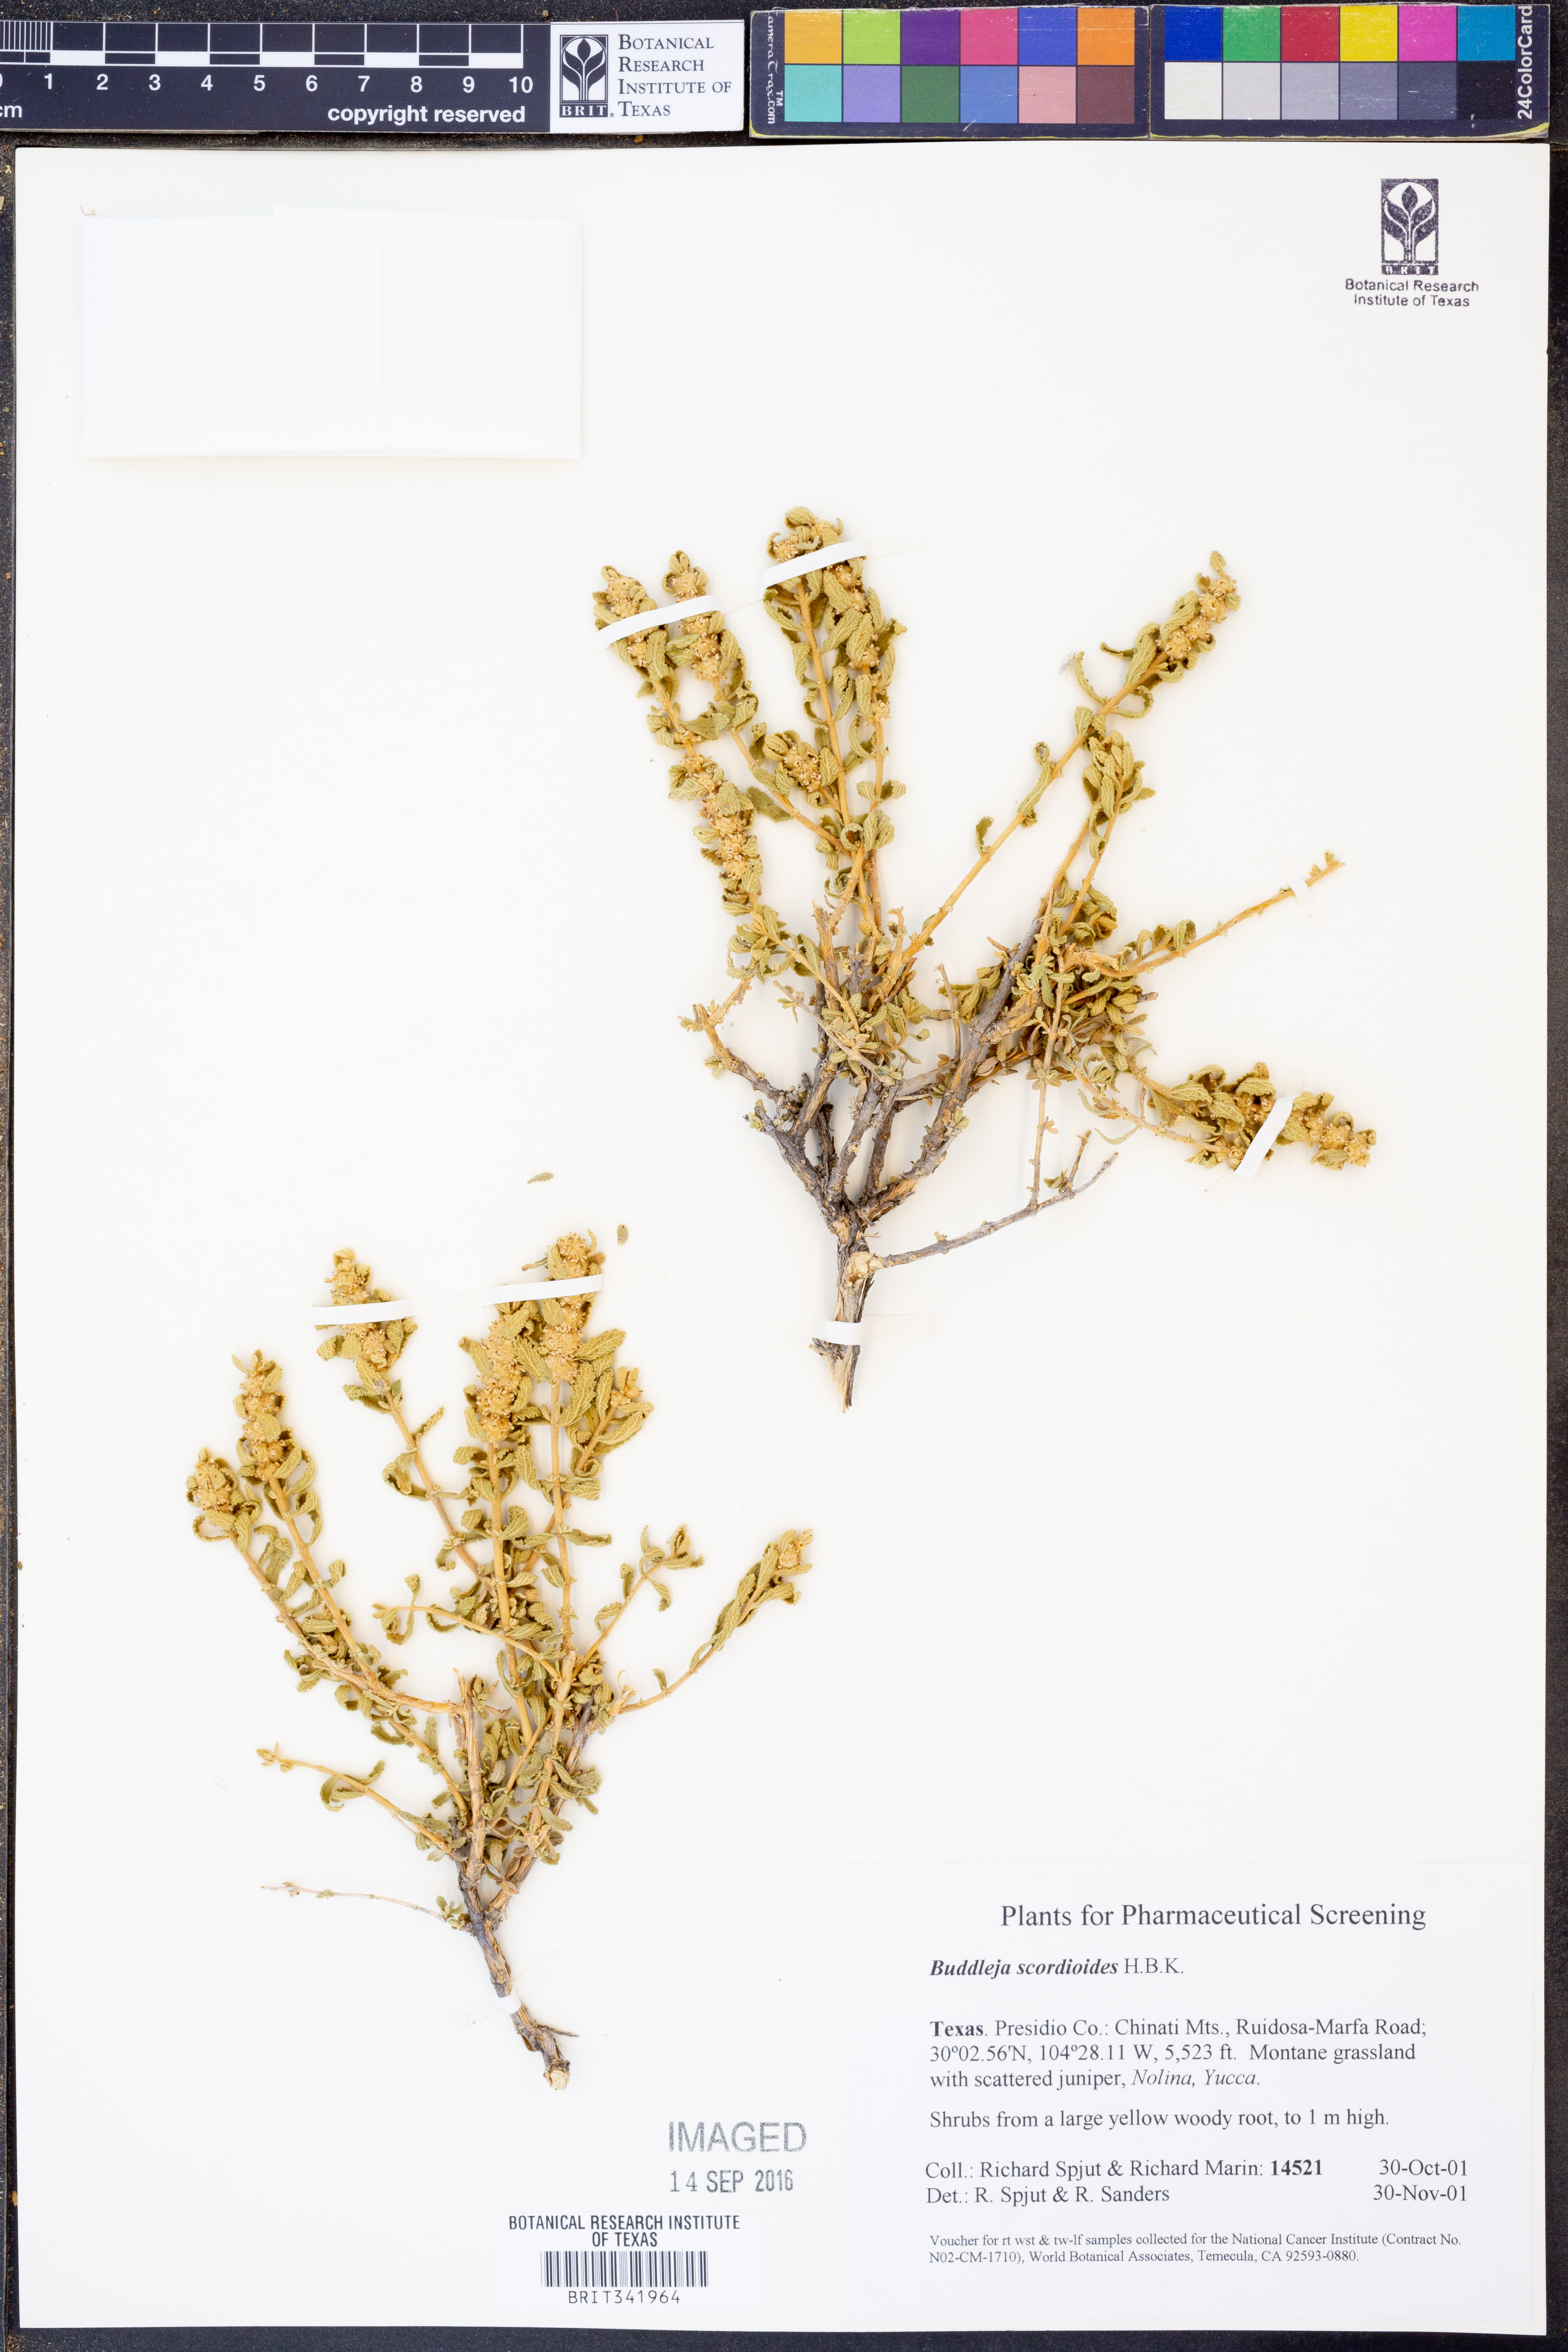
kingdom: Plantae
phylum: Tracheophyta
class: Magnoliopsida
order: Lamiales
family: Scrophulariaceae
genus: Buddleja
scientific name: Buddleja scordioides
